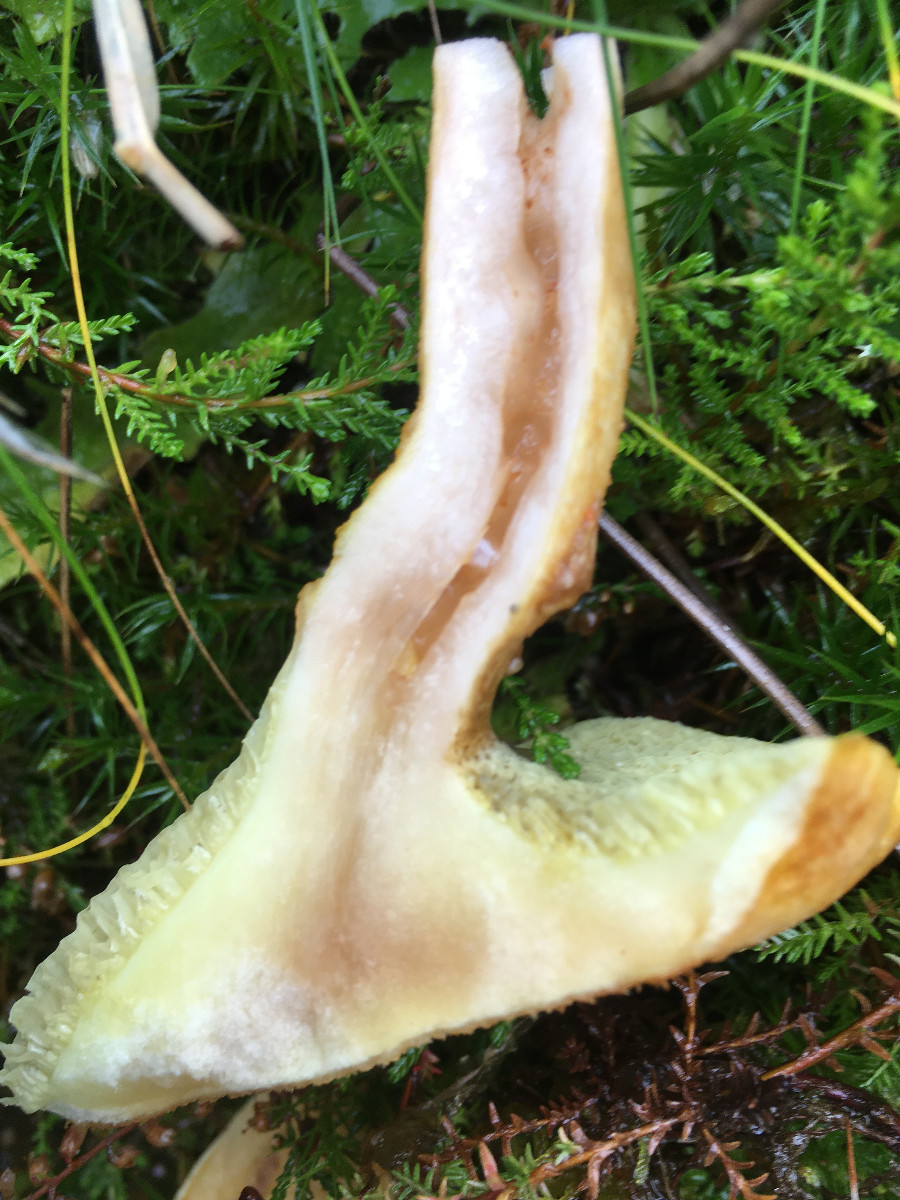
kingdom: Fungi
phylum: Basidiomycota
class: Agaricomycetes
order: Boletales
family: Suillaceae
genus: Suillus
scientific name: Suillus cavipes
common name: hulstokket slimrørhat
